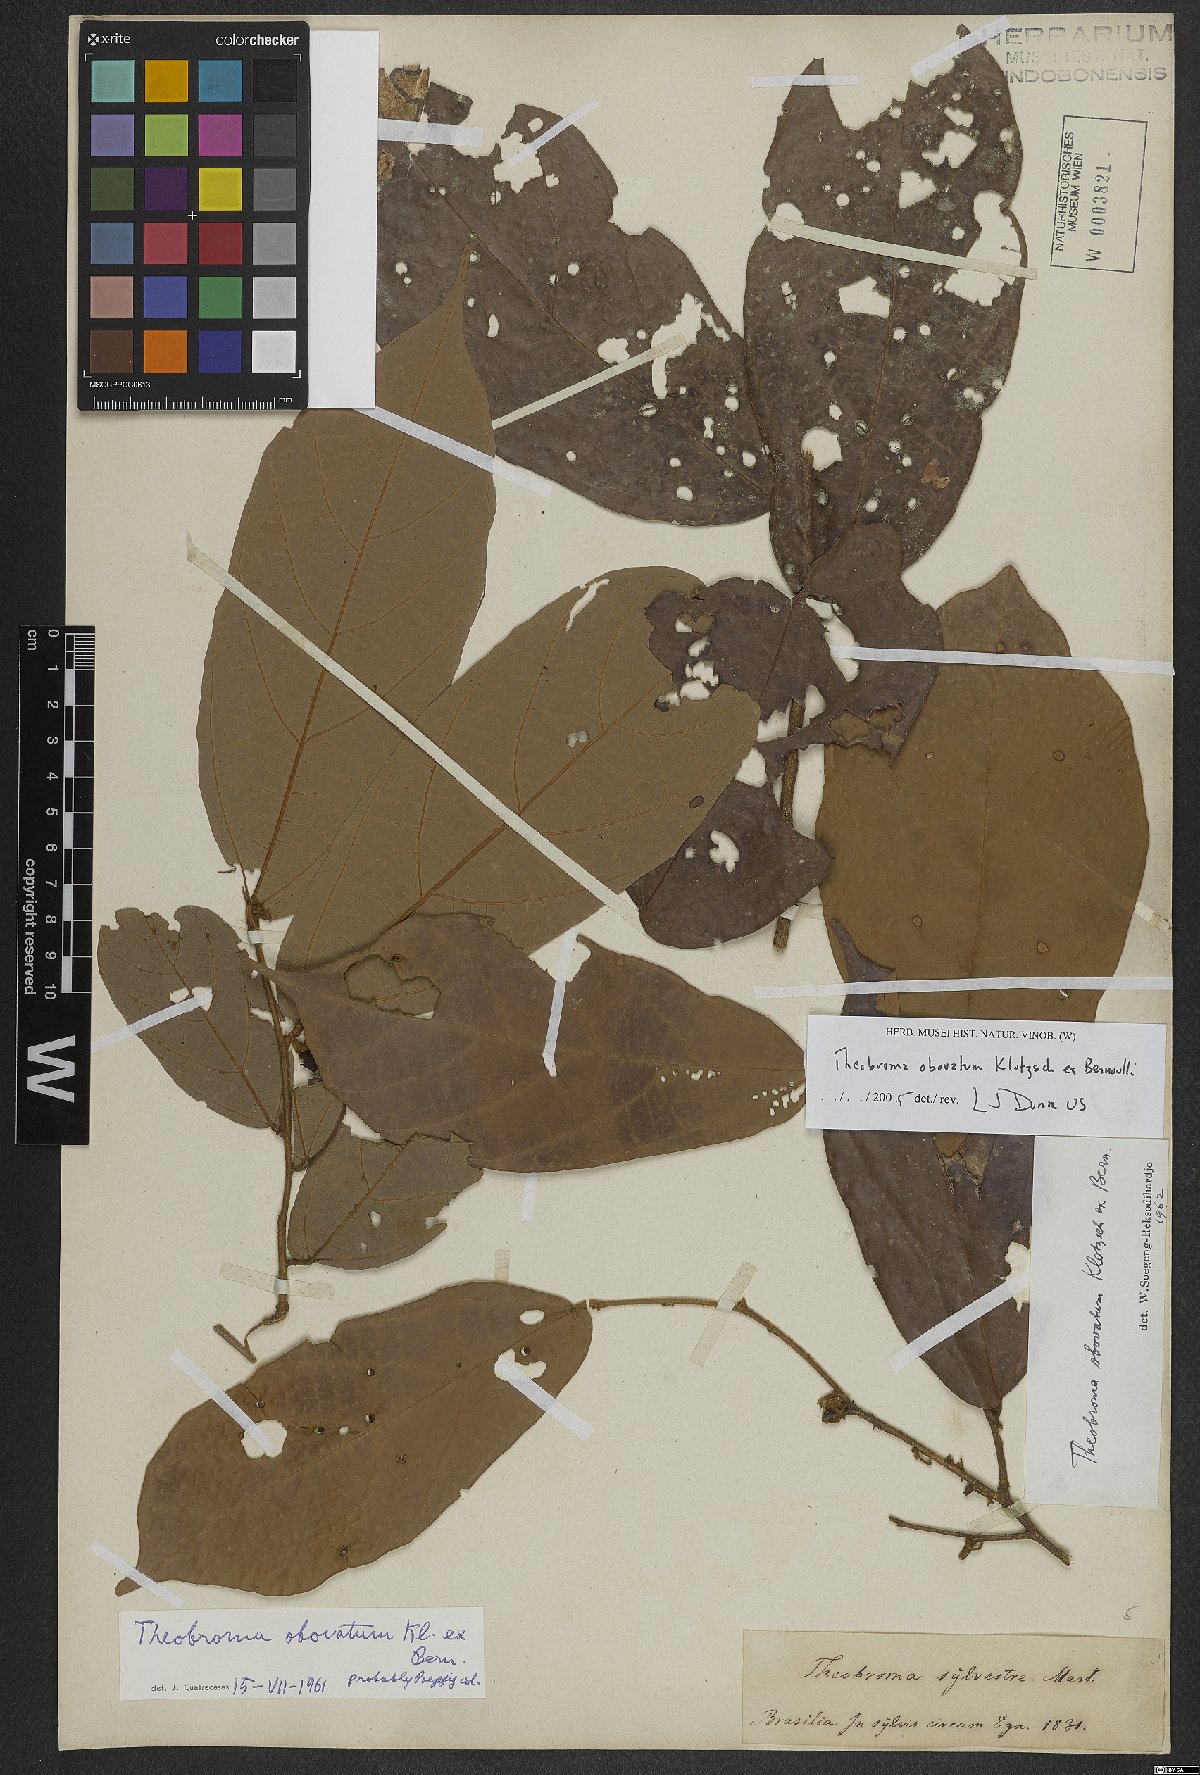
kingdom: Plantae
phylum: Tracheophyta
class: Magnoliopsida
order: Malvales
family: Malvaceae
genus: Theobroma
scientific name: Theobroma obovatum
